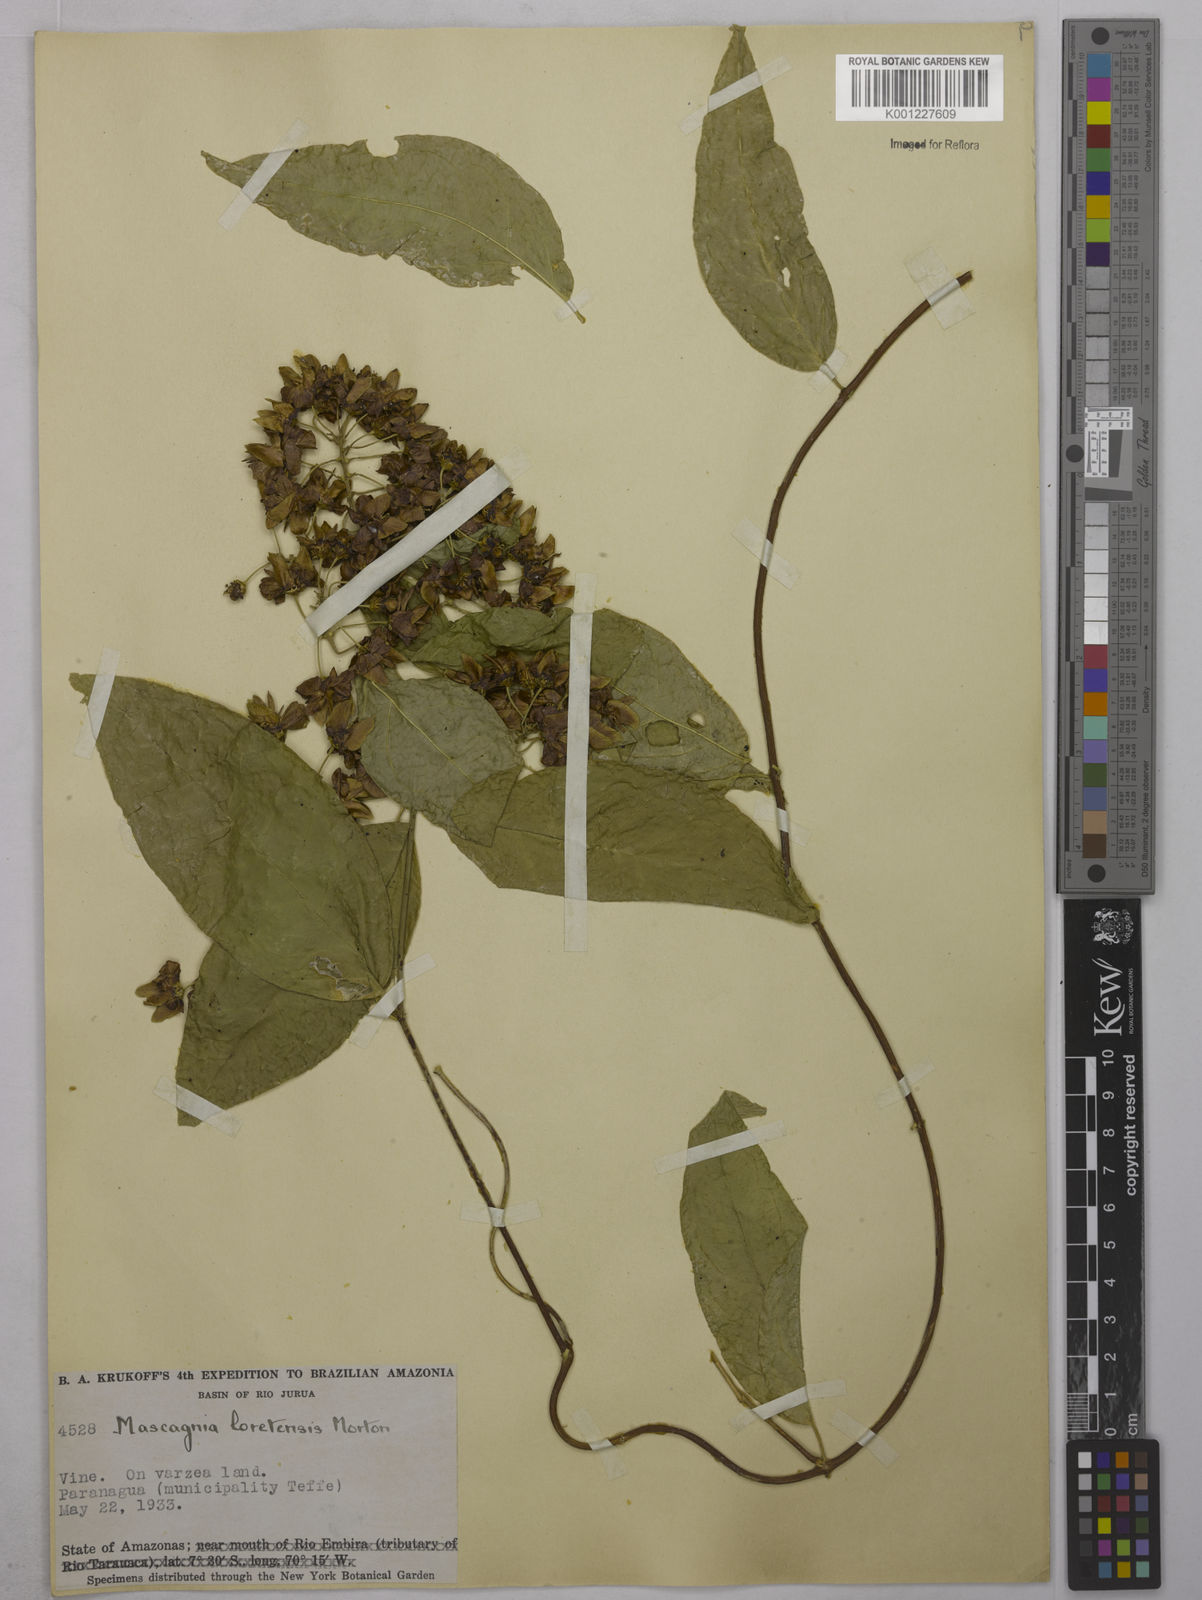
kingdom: Plantae
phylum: Tracheophyta
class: Magnoliopsida
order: Malpighiales
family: Malpighiaceae
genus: Mascagnia
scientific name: Mascagnia loretensis
